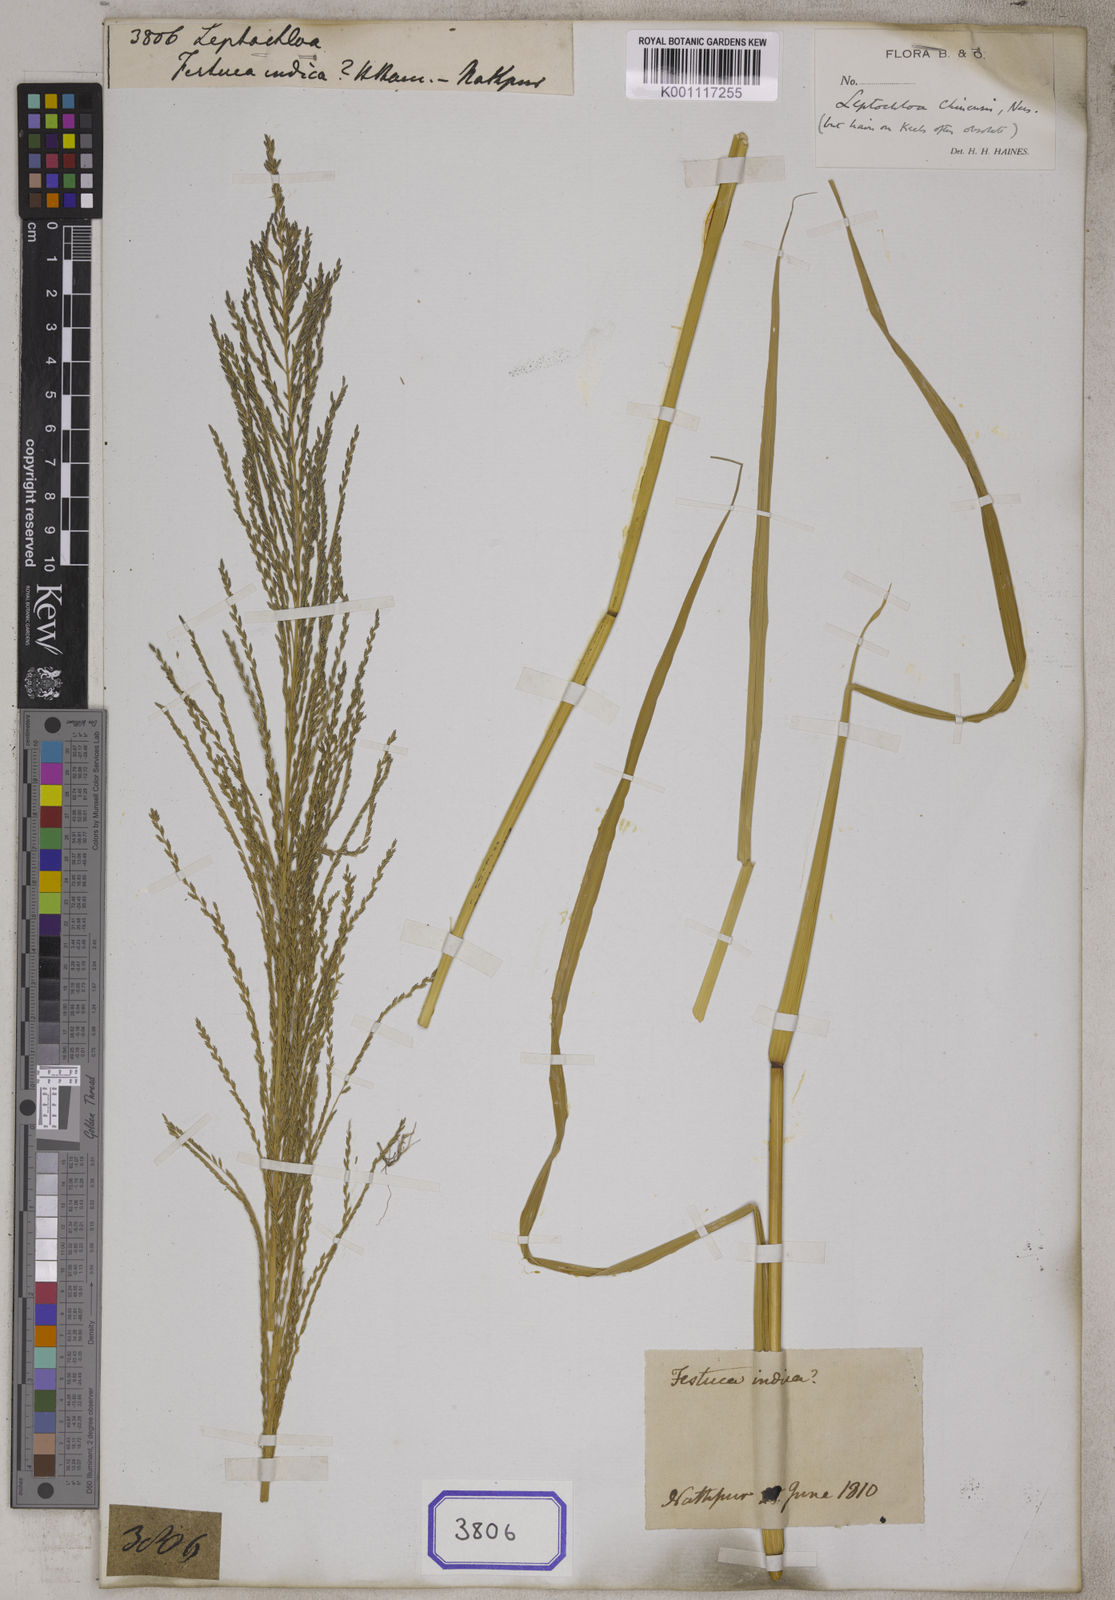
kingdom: Plantae
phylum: Tracheophyta
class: Liliopsida
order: Poales
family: Poaceae
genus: Leptochloa
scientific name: Leptochloa
